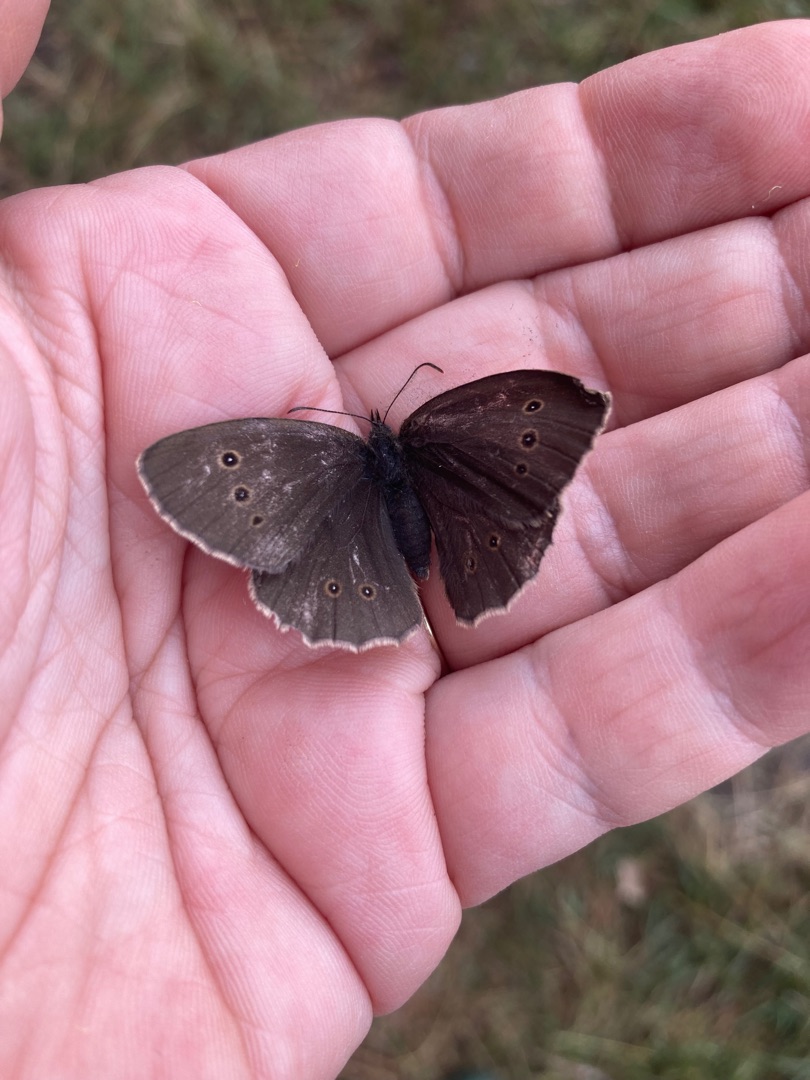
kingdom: Animalia
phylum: Arthropoda
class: Insecta
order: Lepidoptera
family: Nymphalidae
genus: Aphantopus
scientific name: Aphantopus hyperantus
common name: Engrandøje
